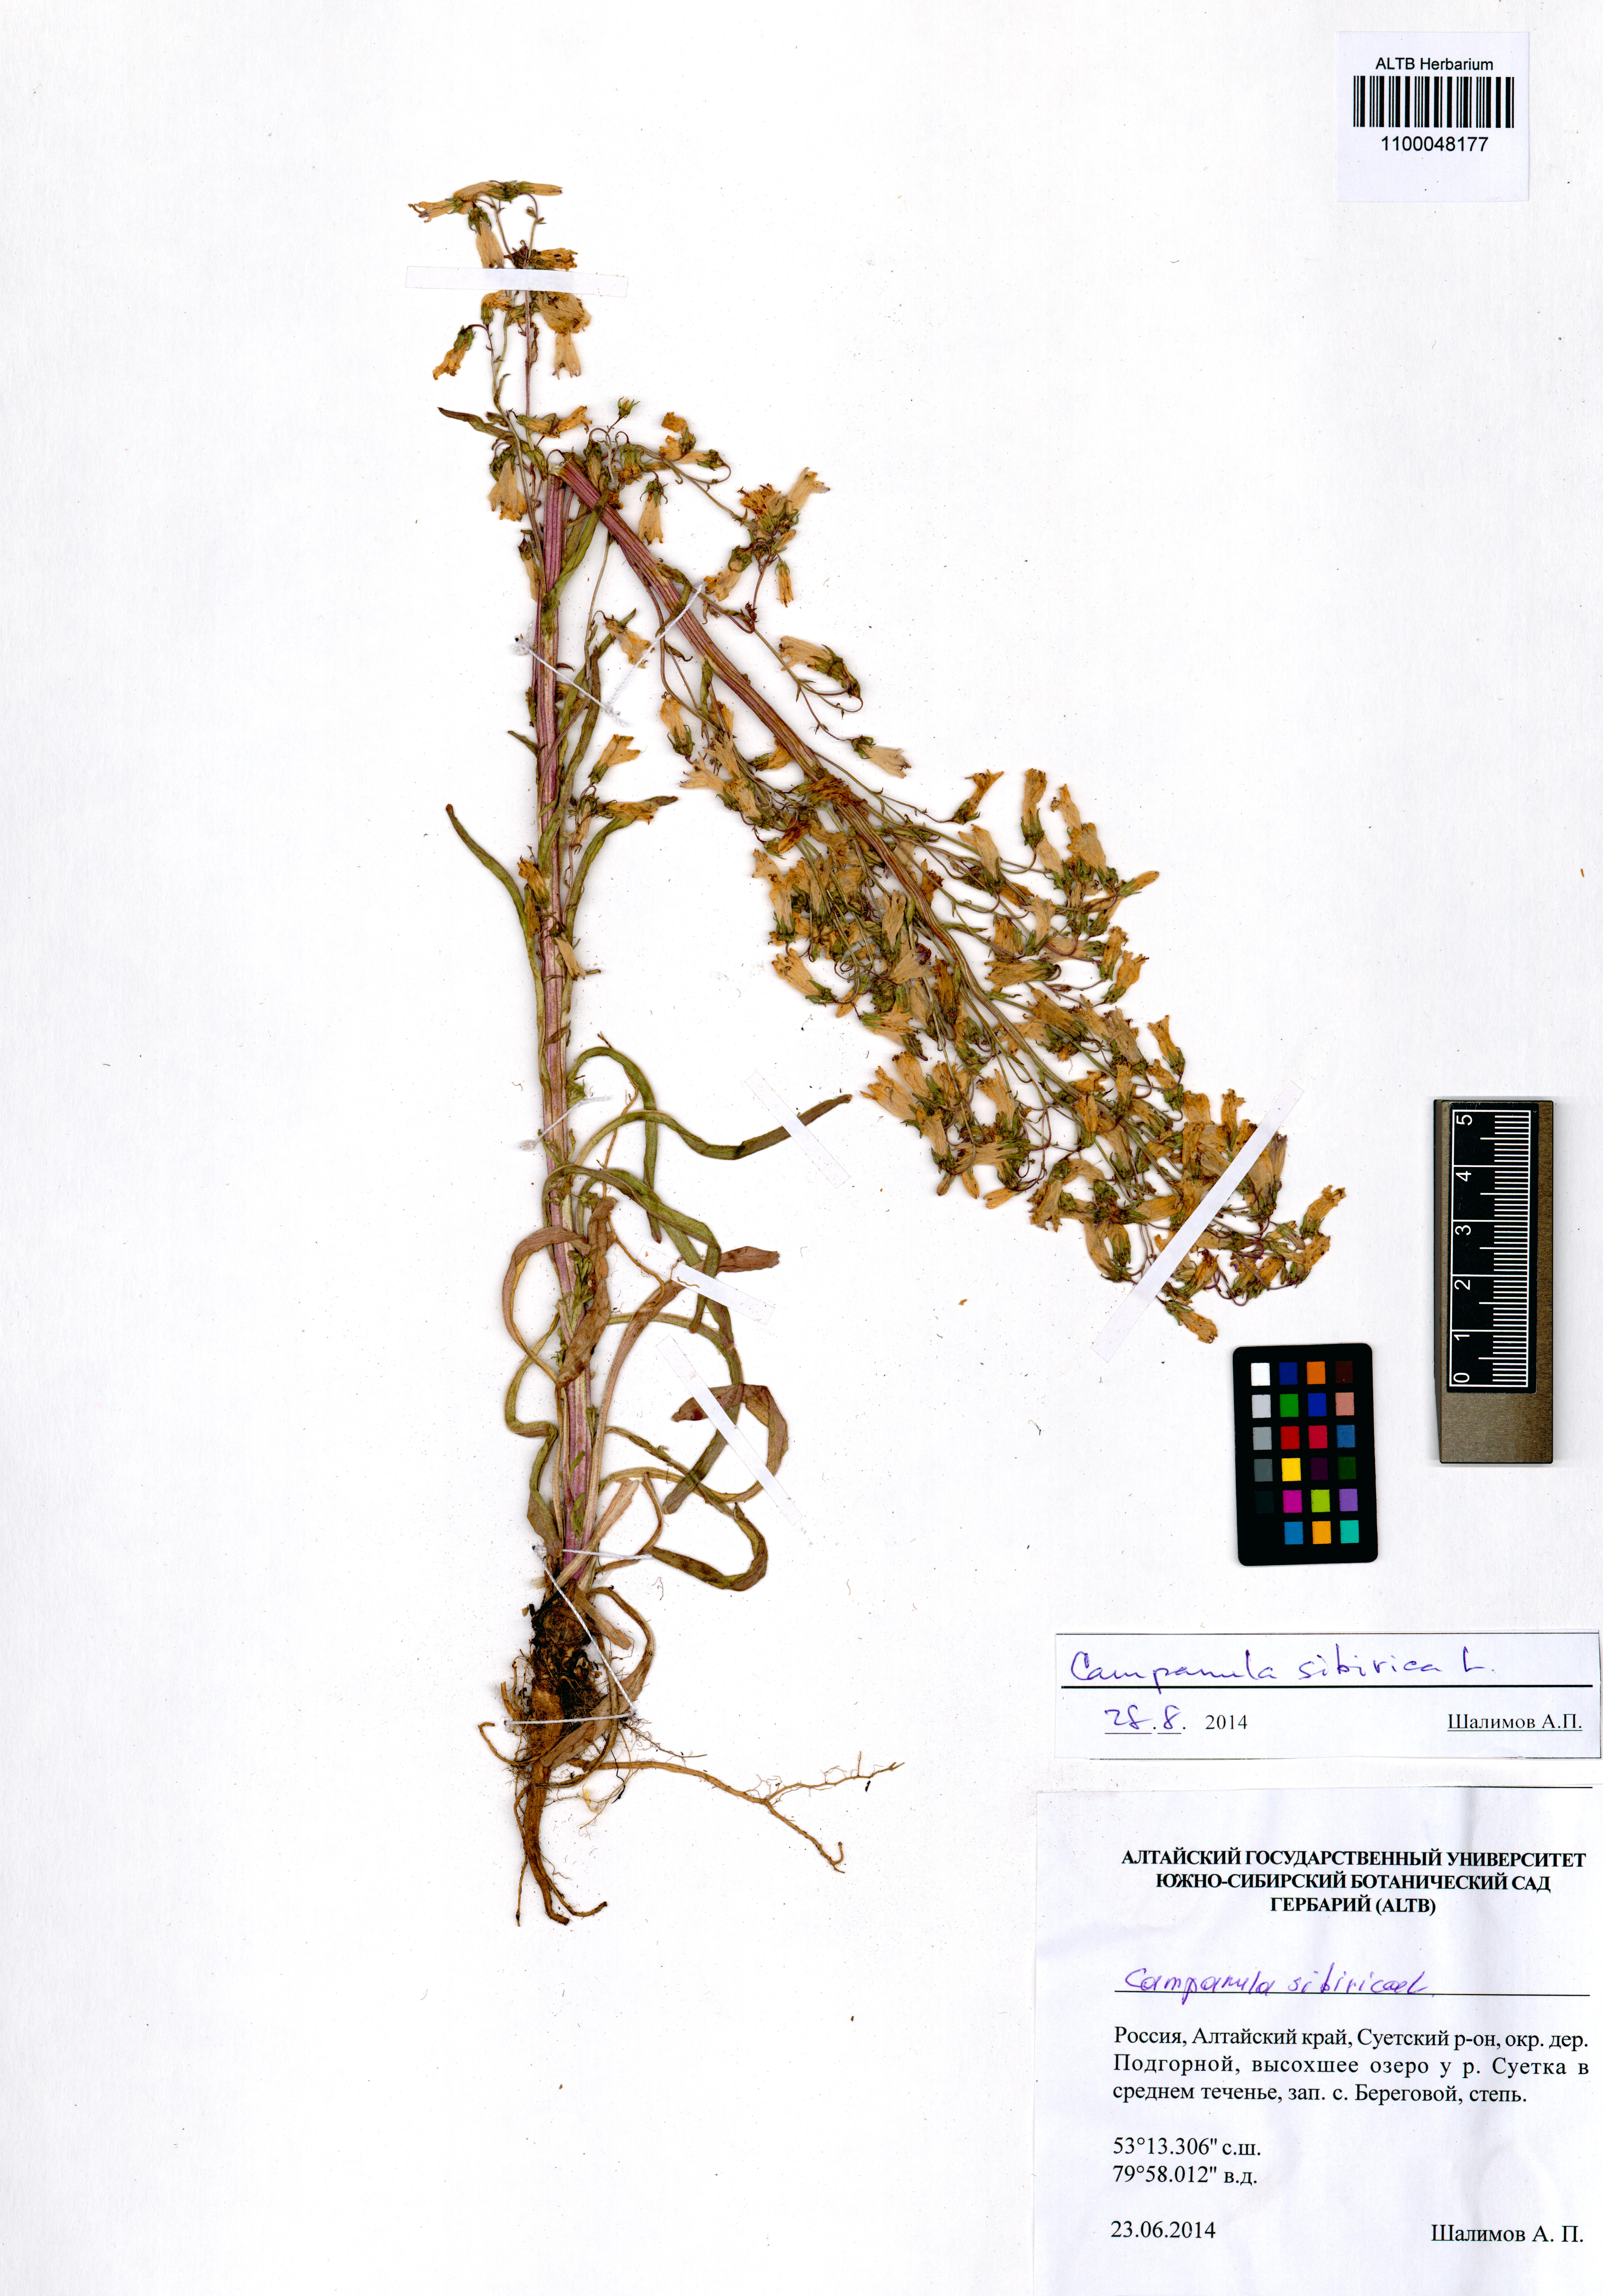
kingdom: Plantae
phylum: Tracheophyta
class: Magnoliopsida
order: Asterales
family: Campanulaceae
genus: Campanula
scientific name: Campanula sibirica
